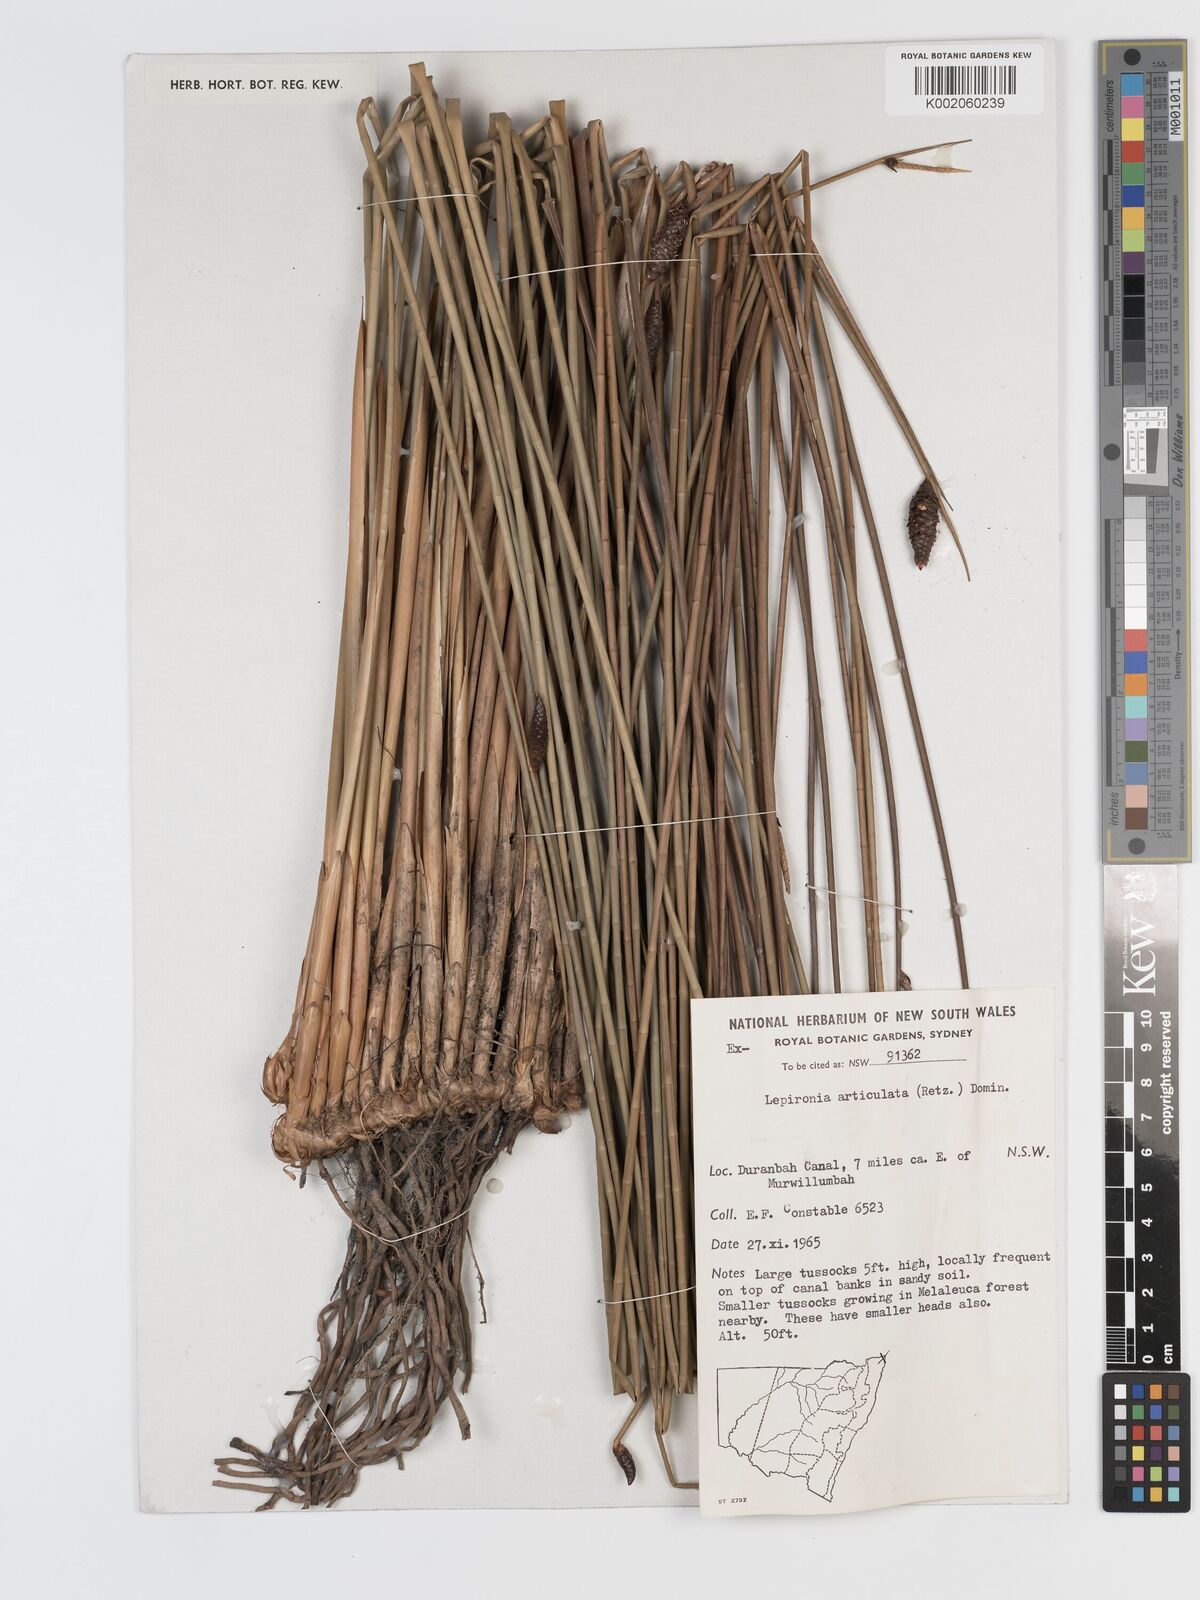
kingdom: Plantae
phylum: Tracheophyta
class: Liliopsida
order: Poales
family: Cyperaceae
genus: Lepironia
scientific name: Lepironia articulata
